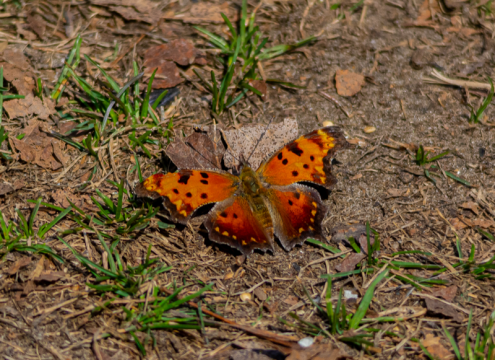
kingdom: Animalia
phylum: Arthropoda
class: Insecta
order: Lepidoptera
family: Nymphalidae
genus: Polygonia
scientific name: Polygonia progne
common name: Gray Comma
